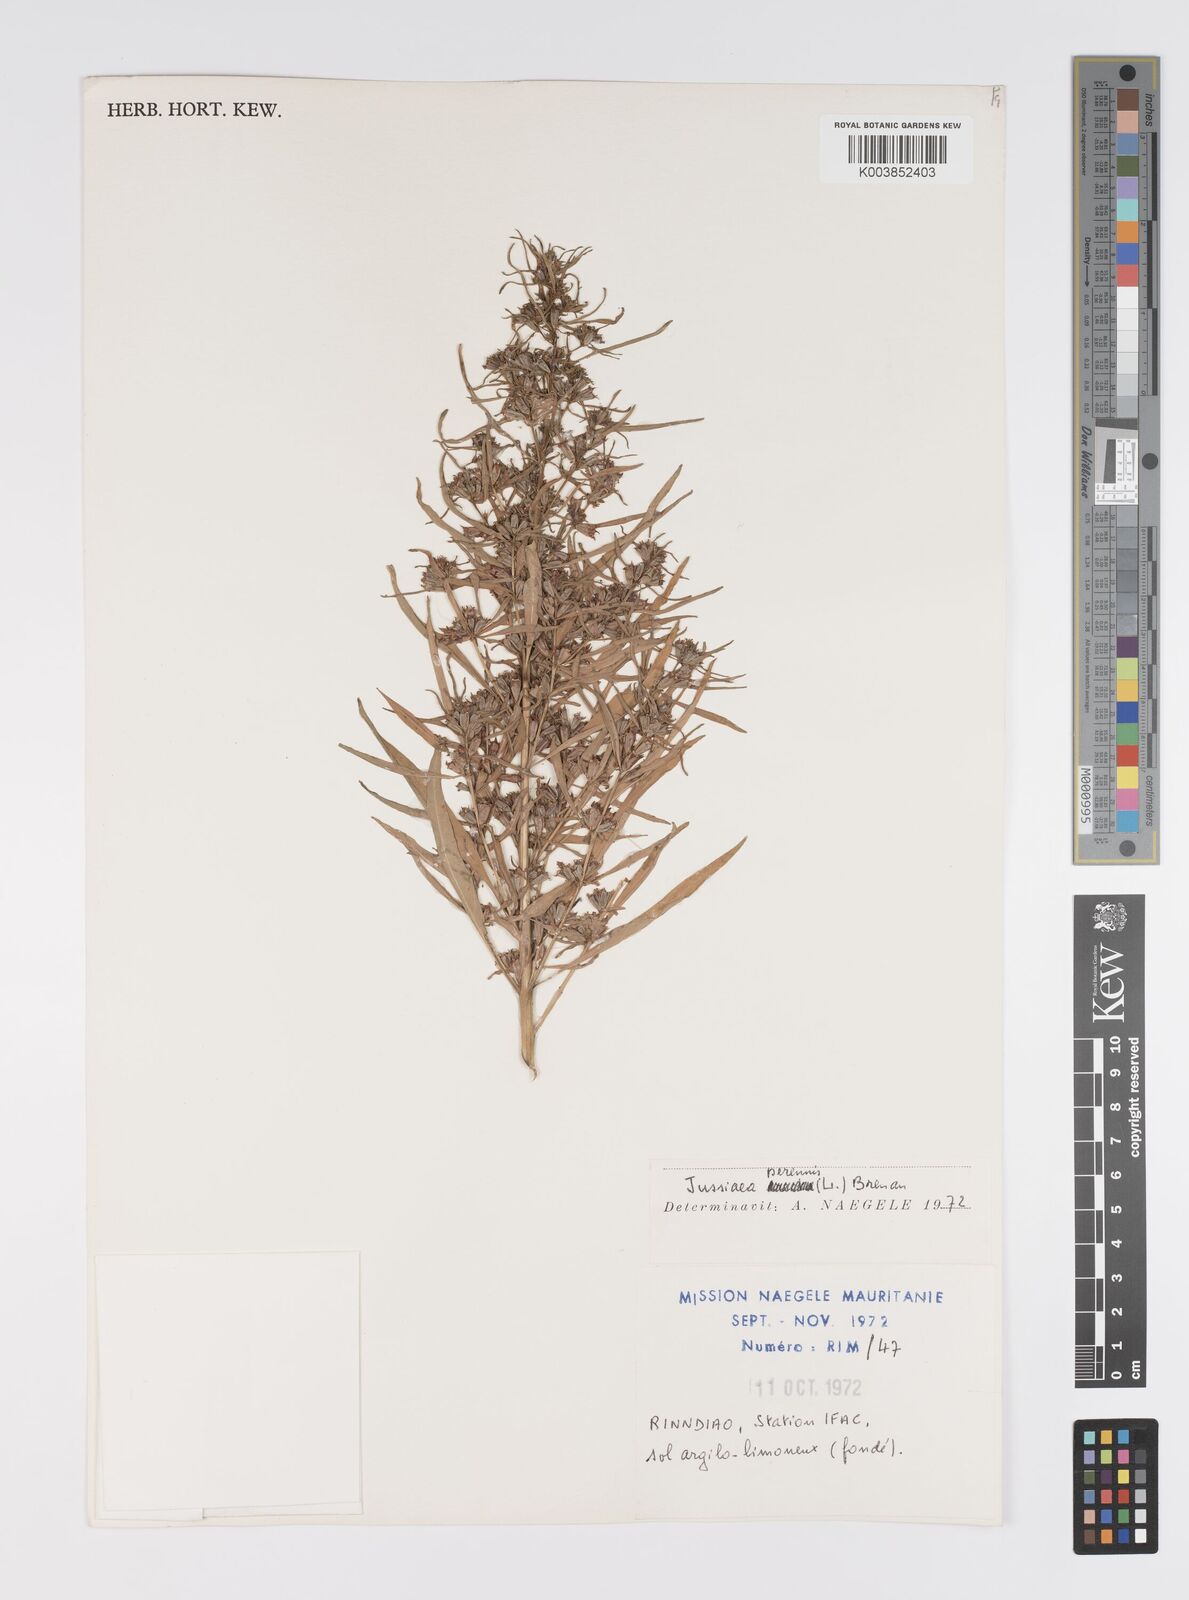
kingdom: Plantae
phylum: Tracheophyta
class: Magnoliopsida
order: Myrtales
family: Onagraceae
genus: Ludwigia
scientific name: Ludwigia perennis
